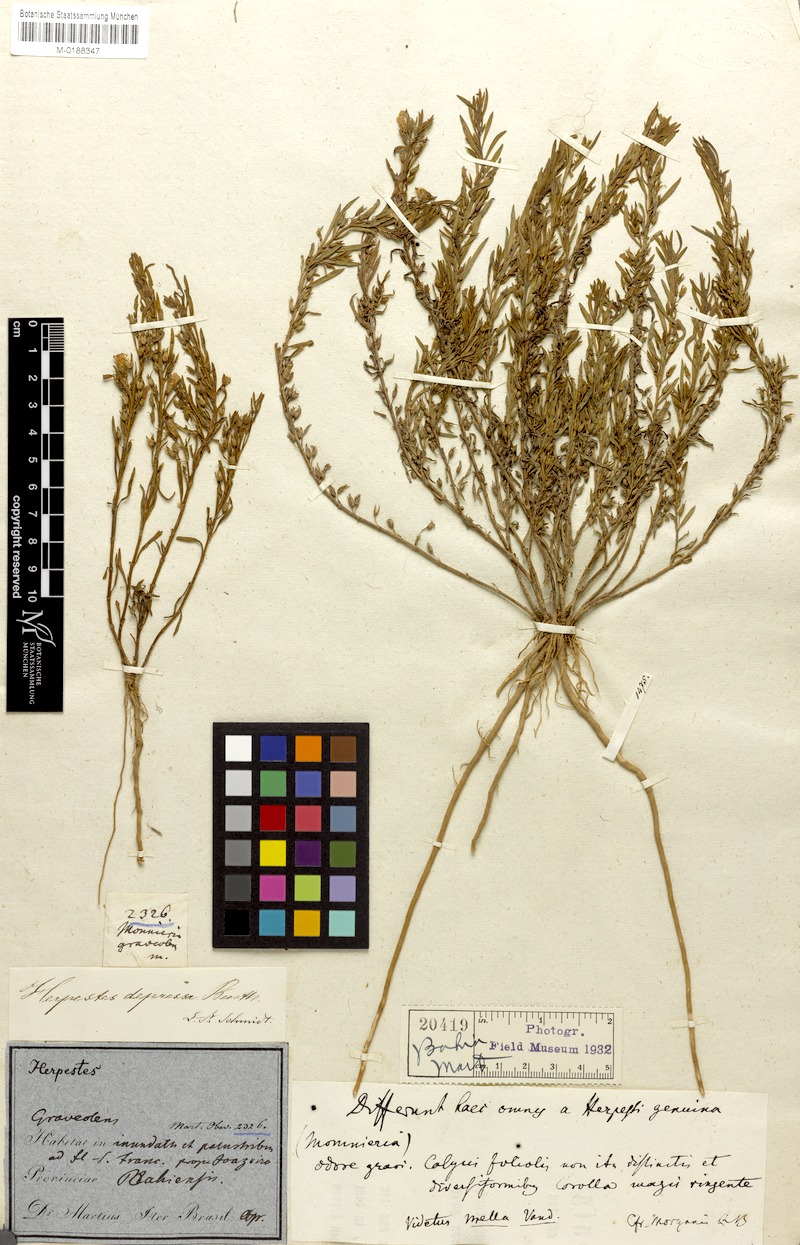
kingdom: Plantae
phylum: Tracheophyta
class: Magnoliopsida
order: Lamiales
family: Plantaginaceae
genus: Bacopa
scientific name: Bacopa depressa
